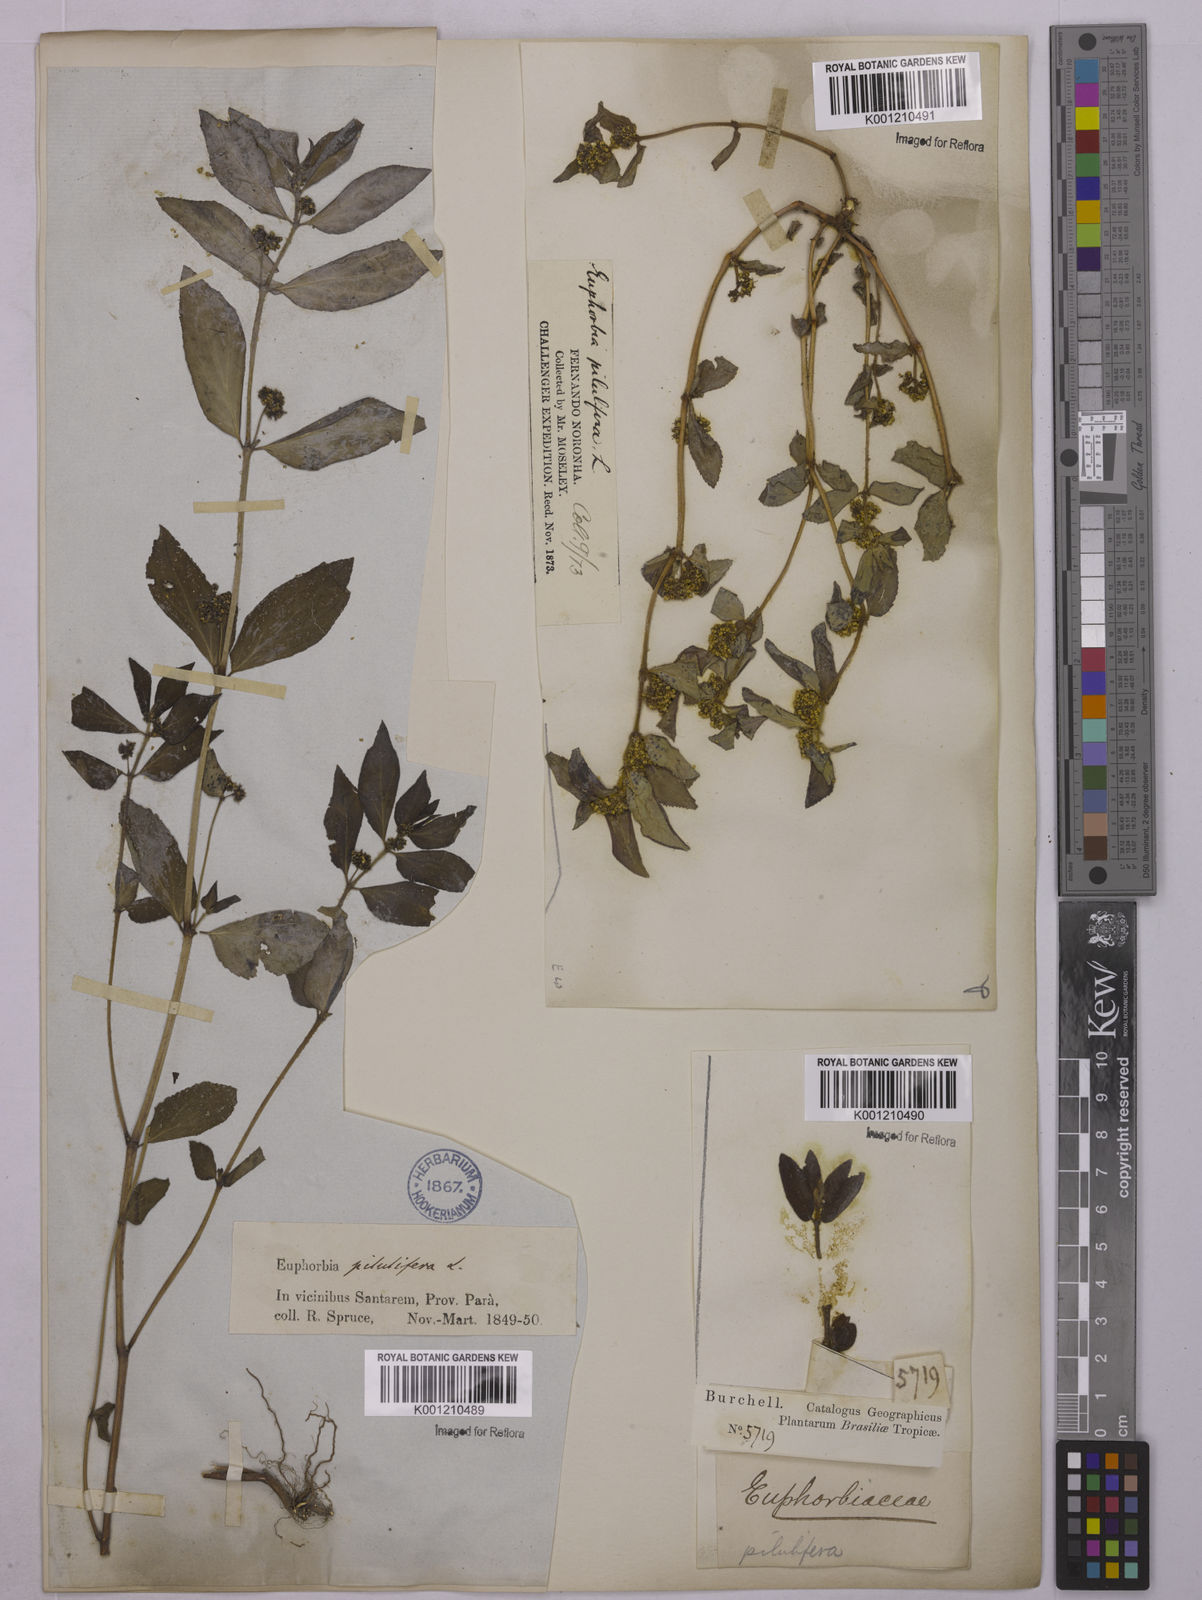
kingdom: Plantae
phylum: Tracheophyta
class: Magnoliopsida
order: Malpighiales
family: Euphorbiaceae
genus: Euphorbia
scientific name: Euphorbia hirta
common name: Pillpod sandmat
